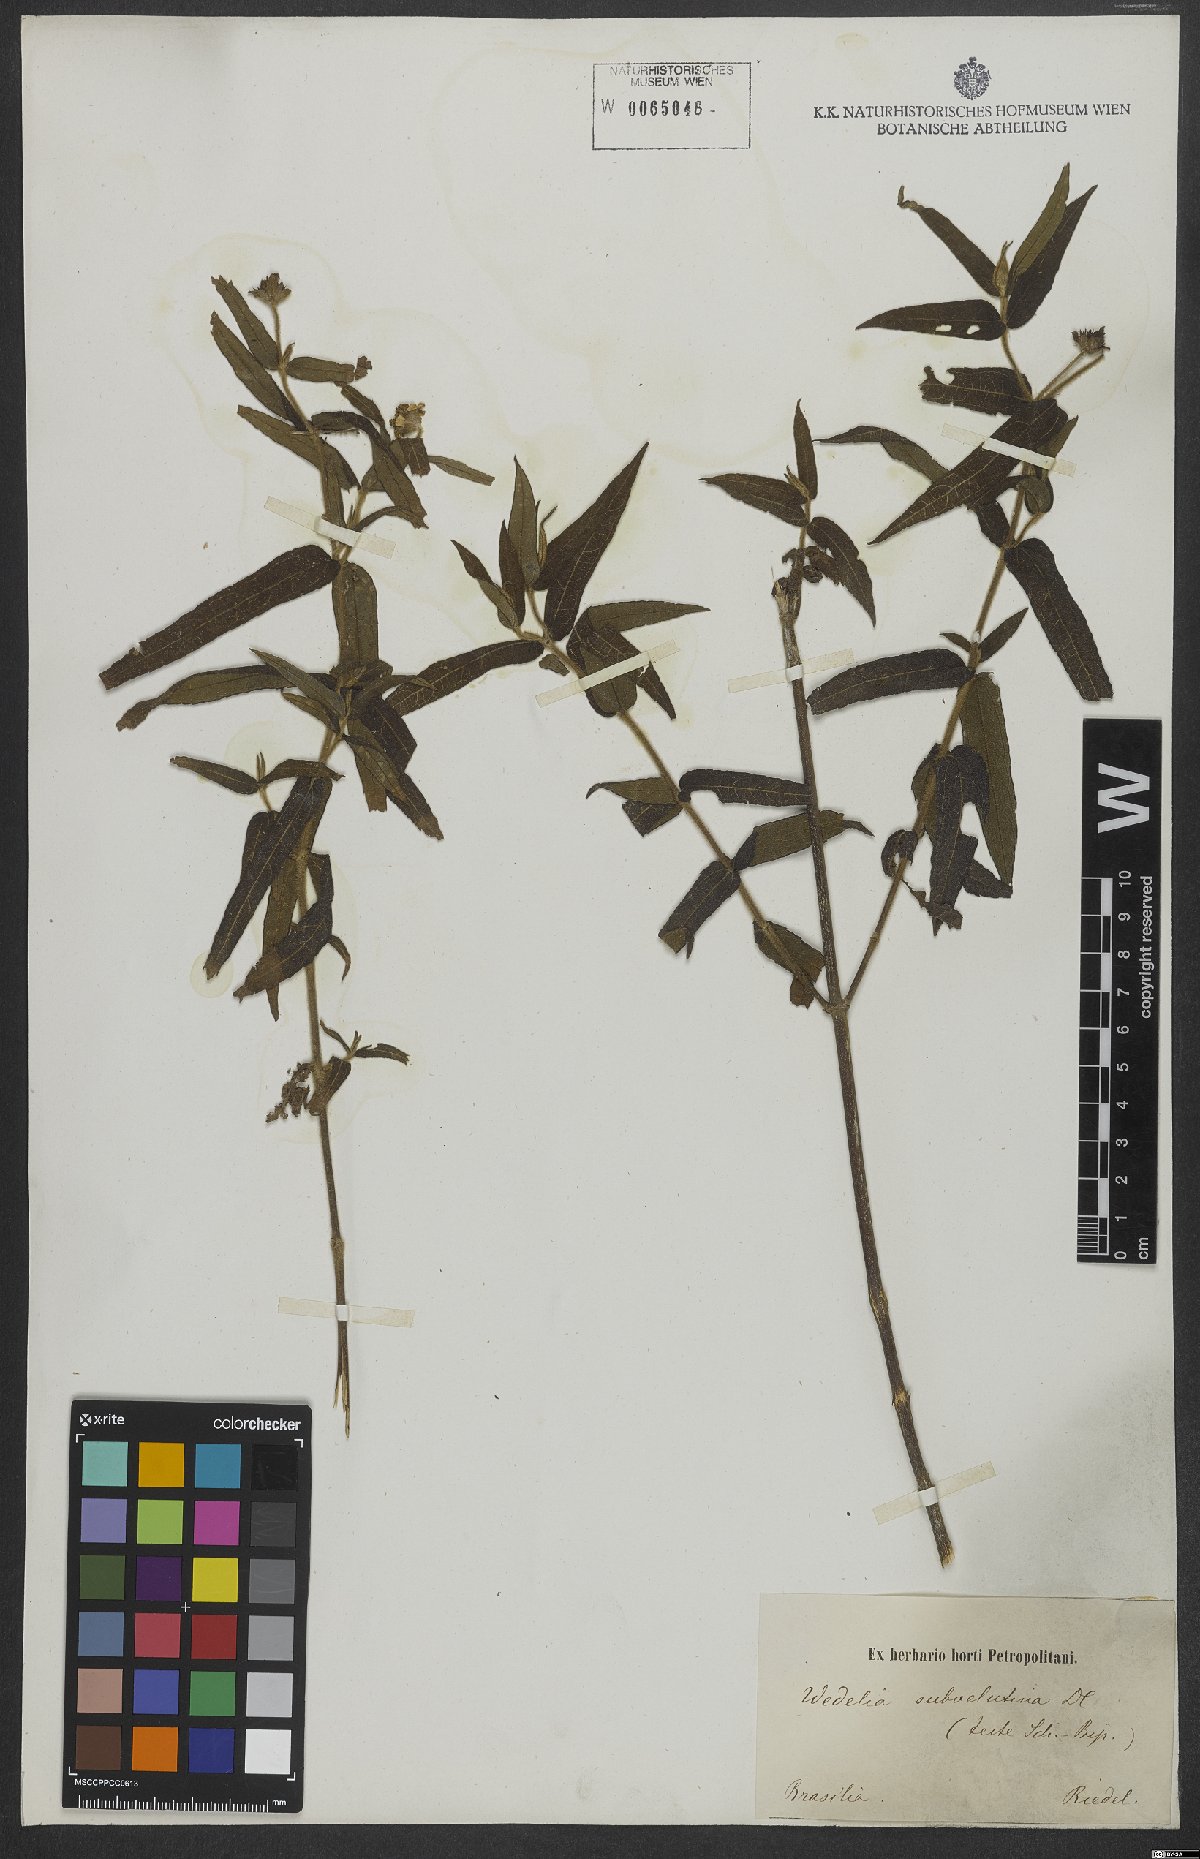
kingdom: Plantae
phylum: Tracheophyta
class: Magnoliopsida
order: Asterales
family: Asteraceae
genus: Wedelia
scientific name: Wedelia subvelutina
